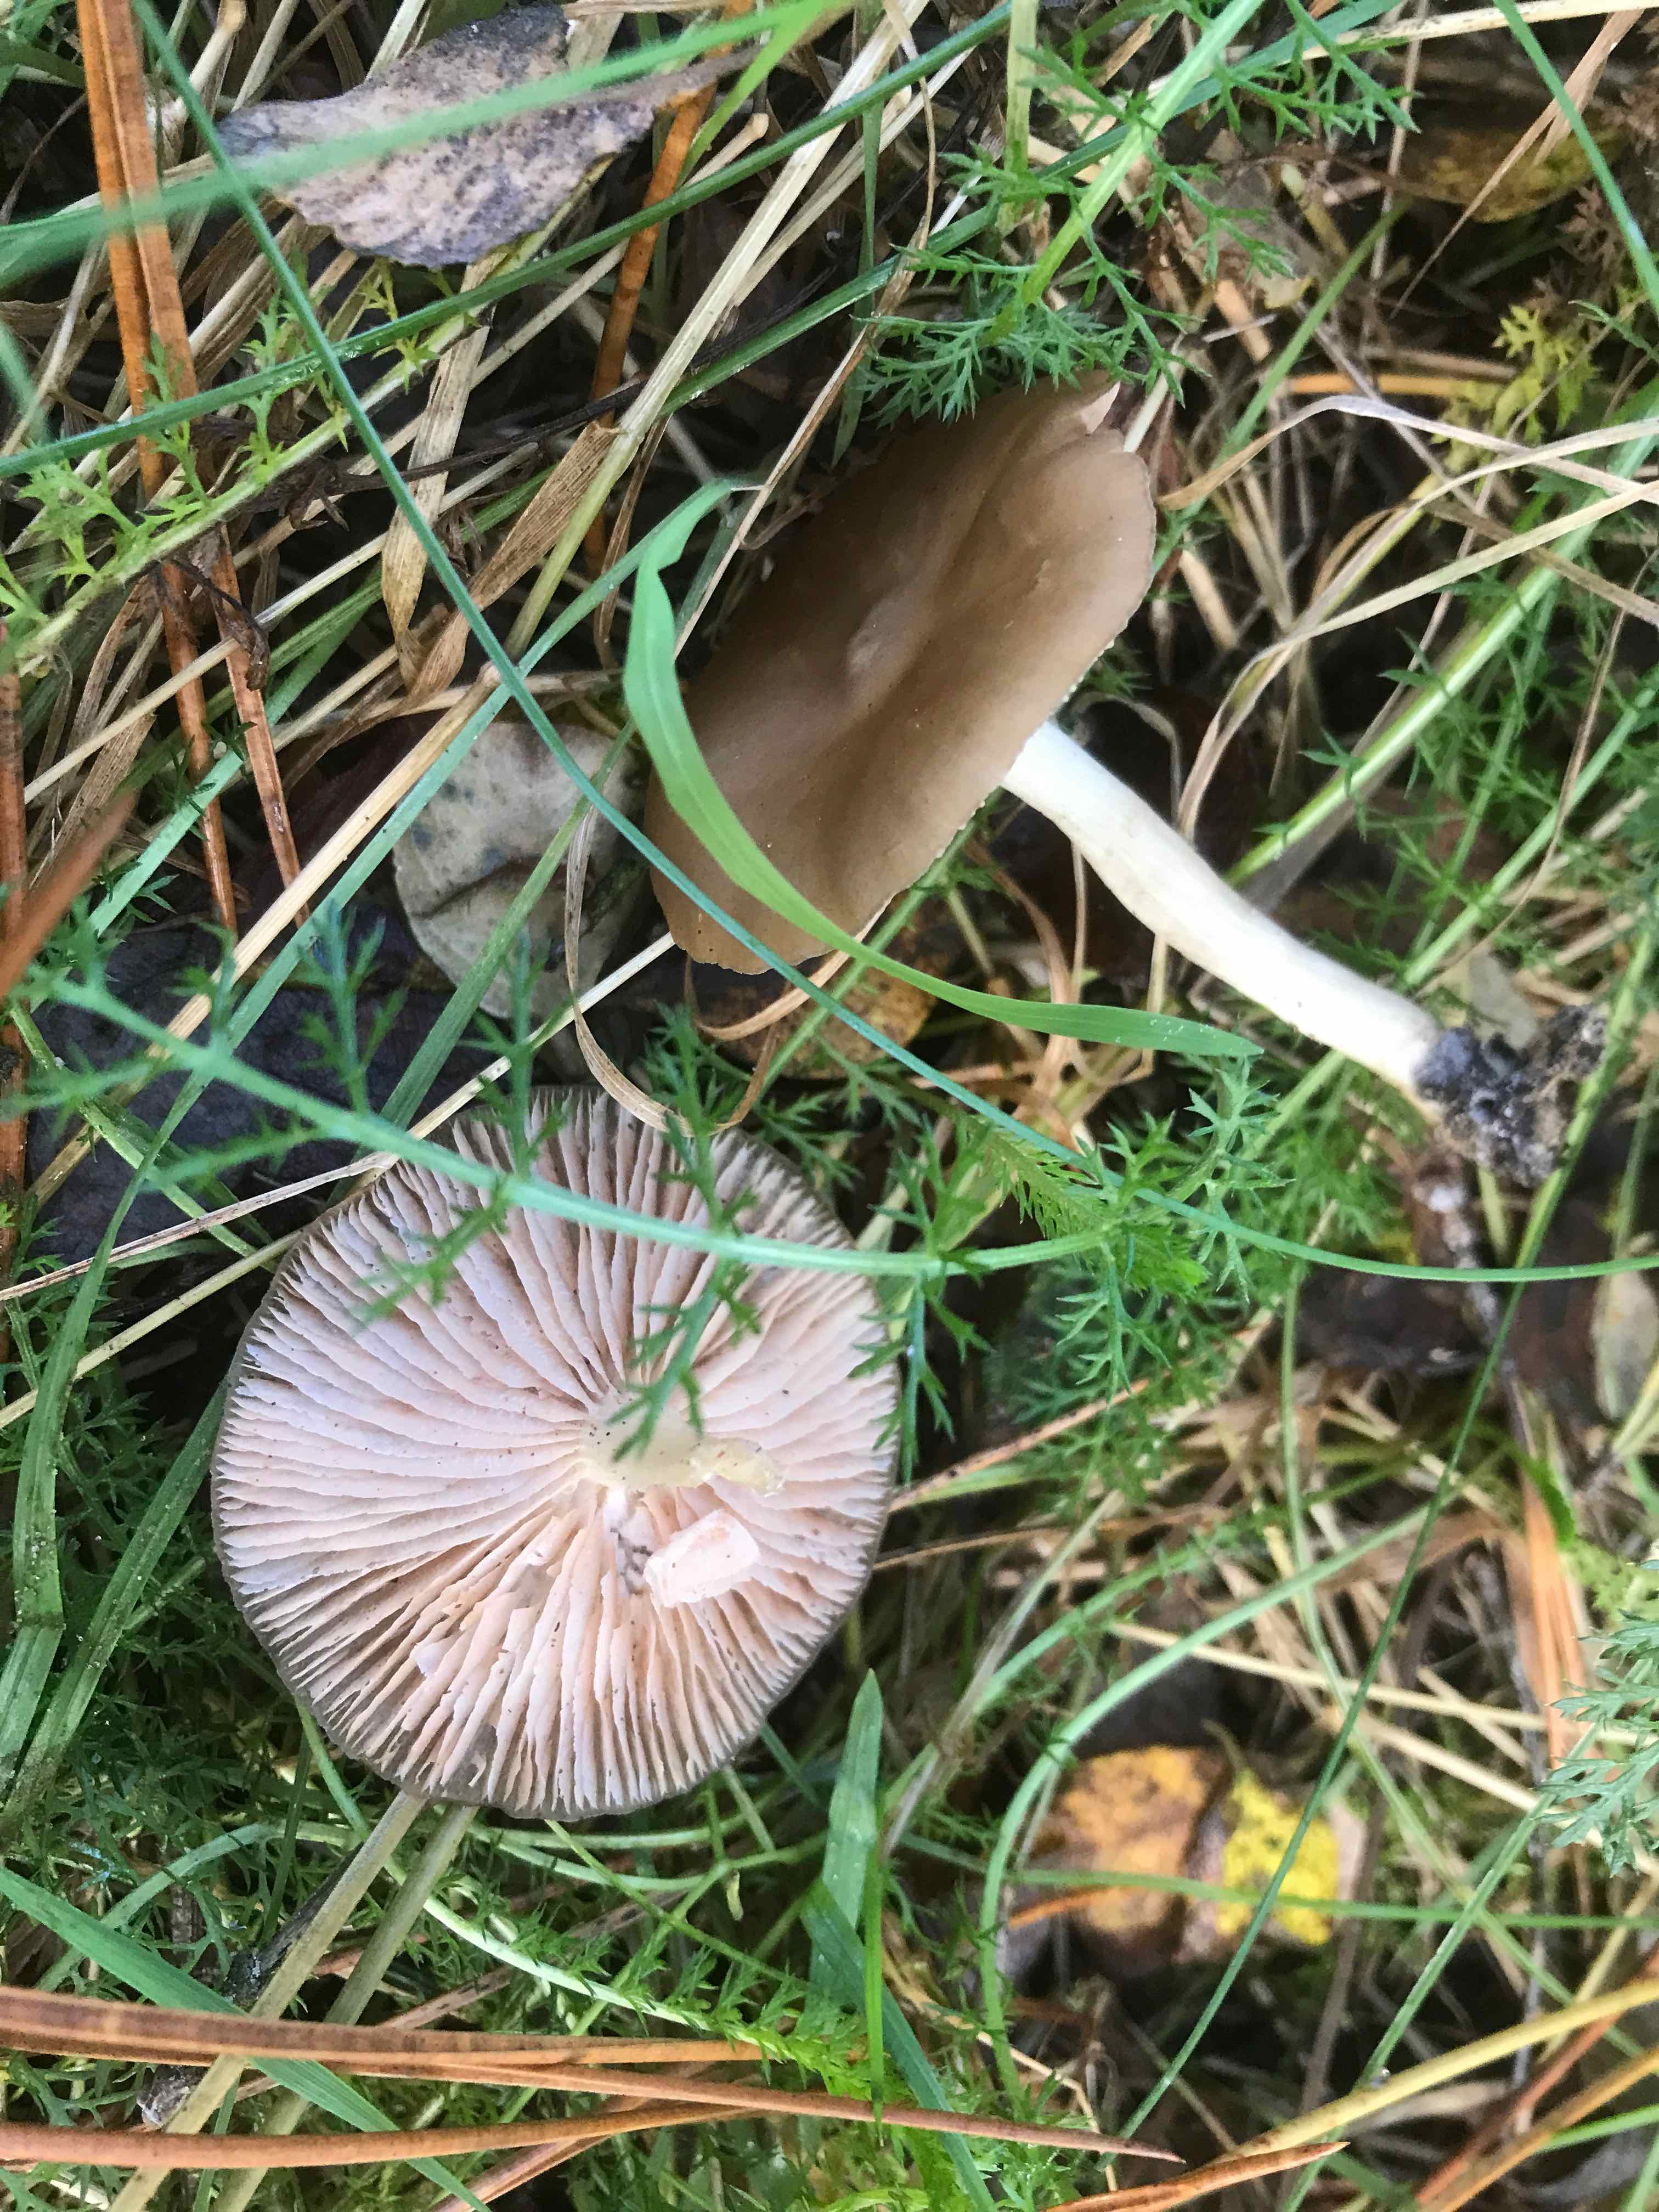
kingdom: Fungi
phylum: Basidiomycota
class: Agaricomycetes
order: Agaricales
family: Entolomataceae
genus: Entoloma
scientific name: Entoloma
